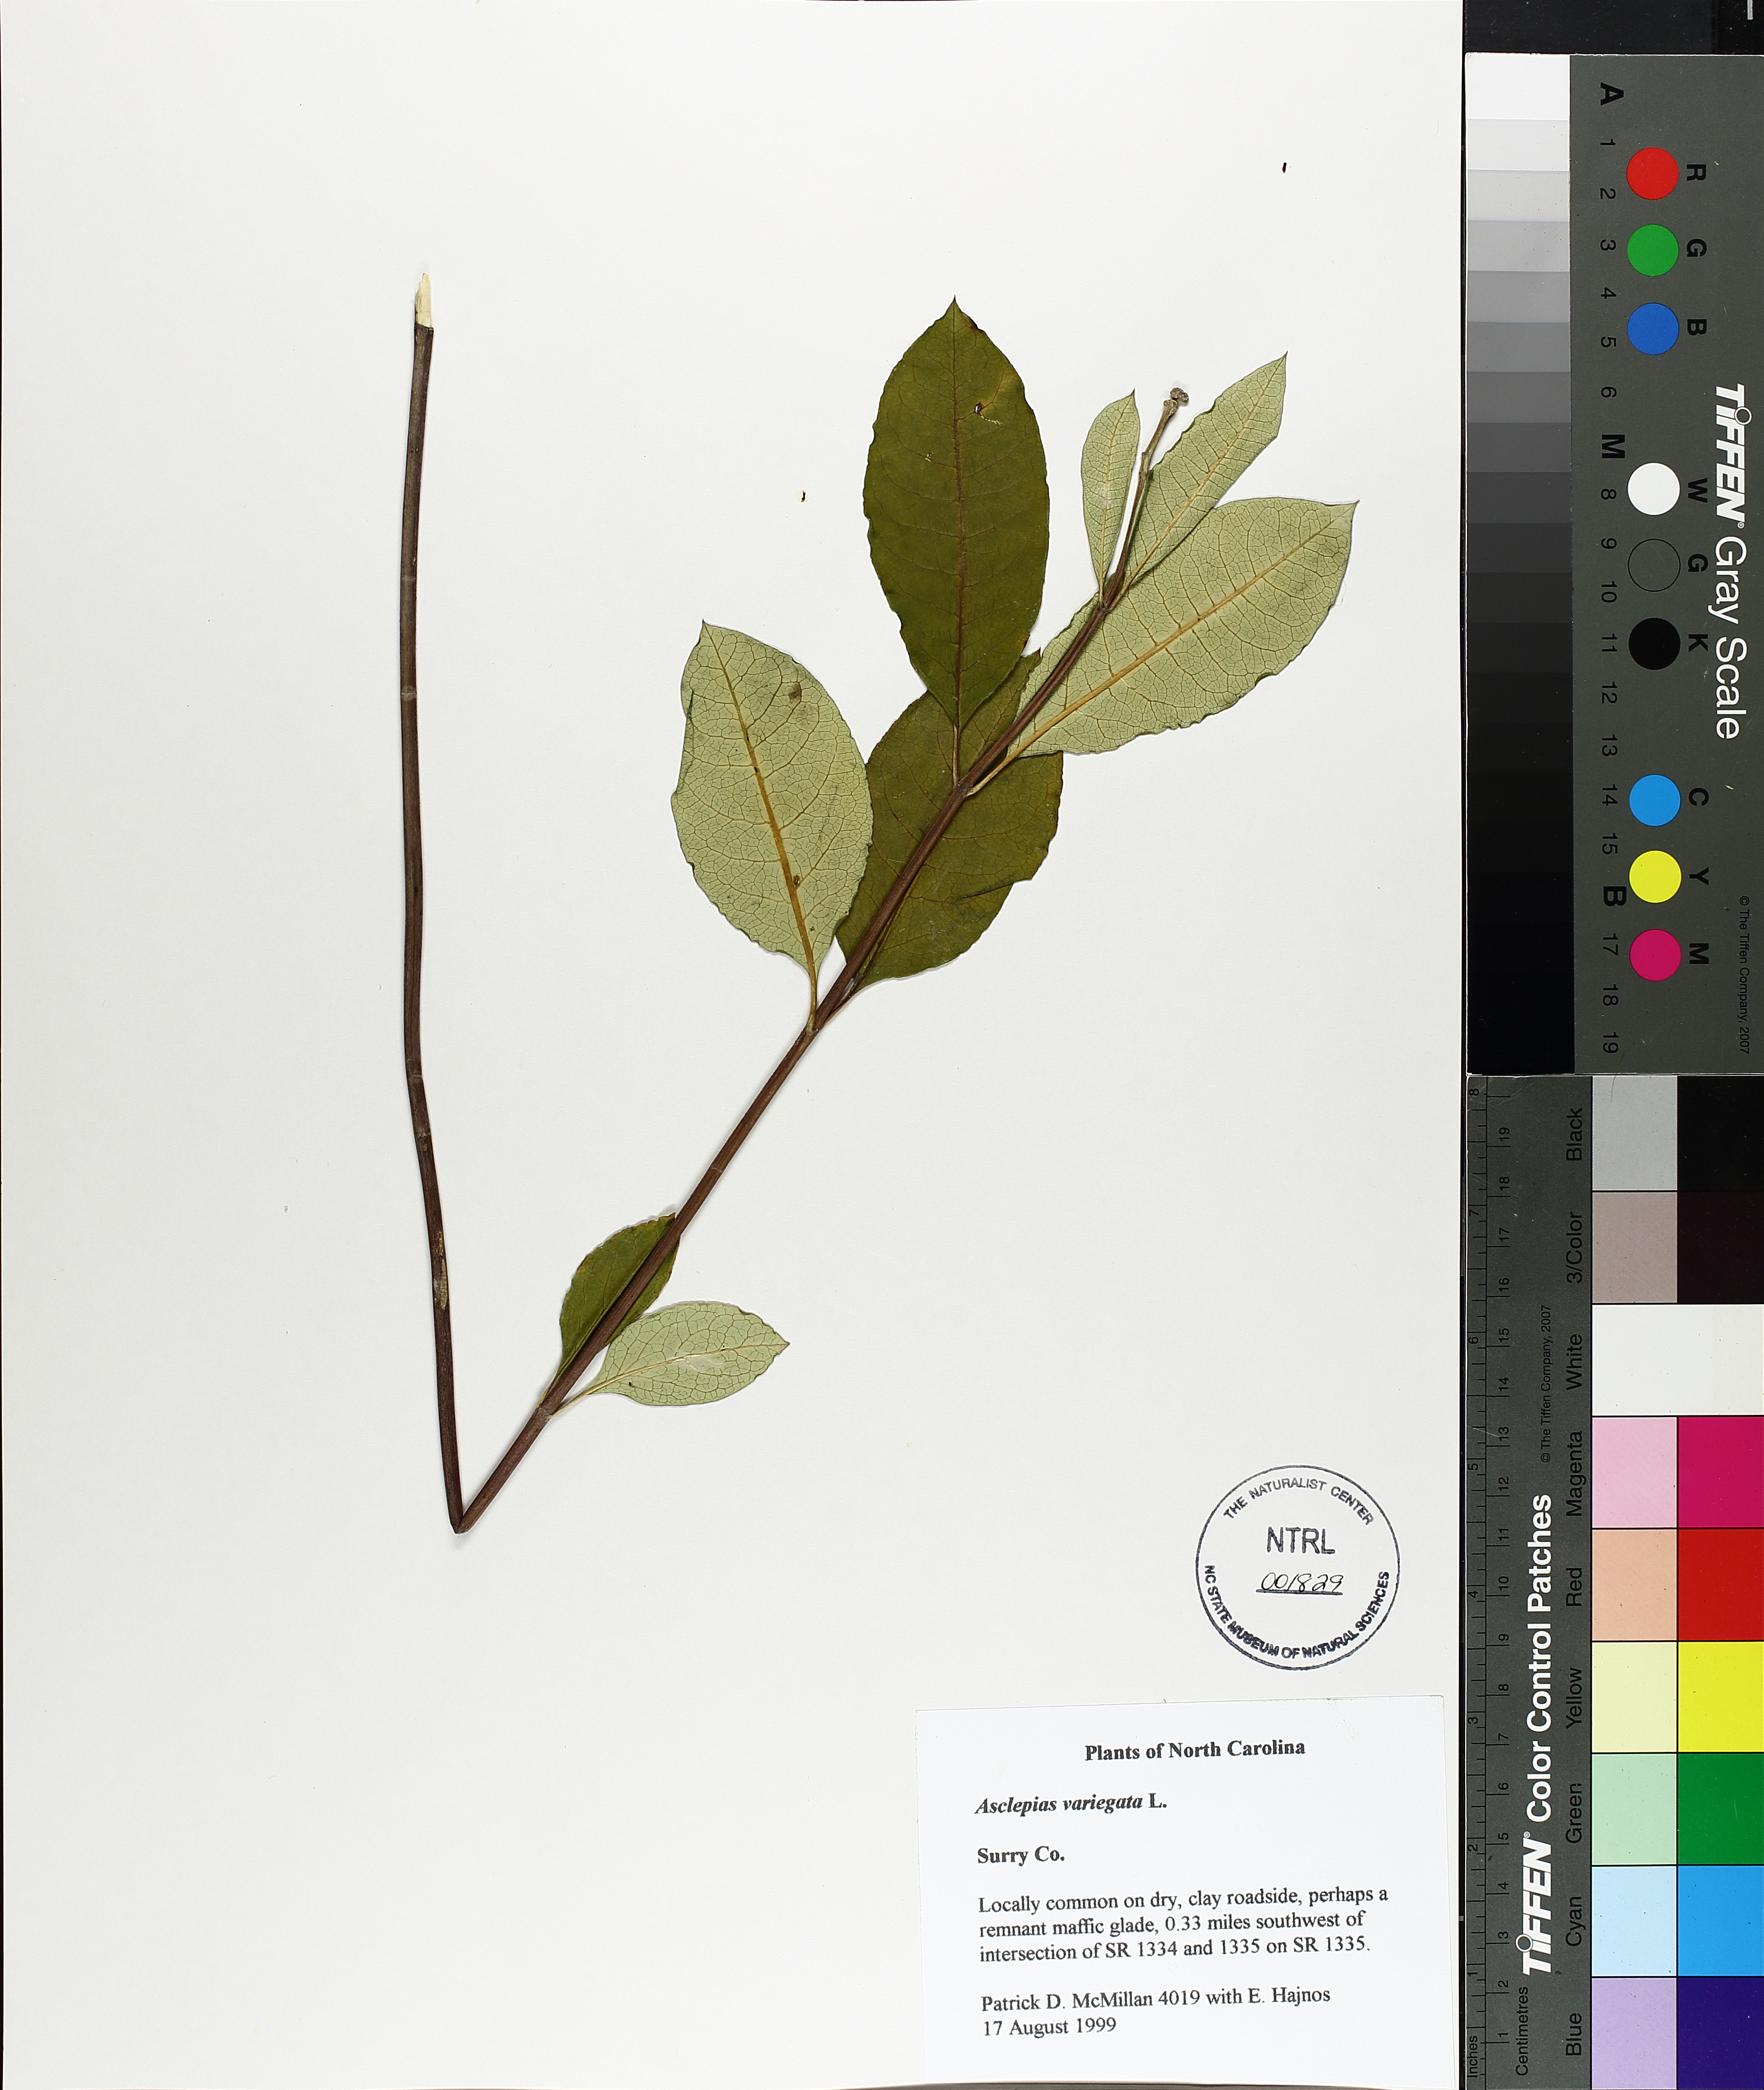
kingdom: Plantae
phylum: Tracheophyta
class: Magnoliopsida
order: Gentianales
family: Apocynaceae
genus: Asclepias
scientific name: Asclepias variegata
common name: Variegated milkweed
